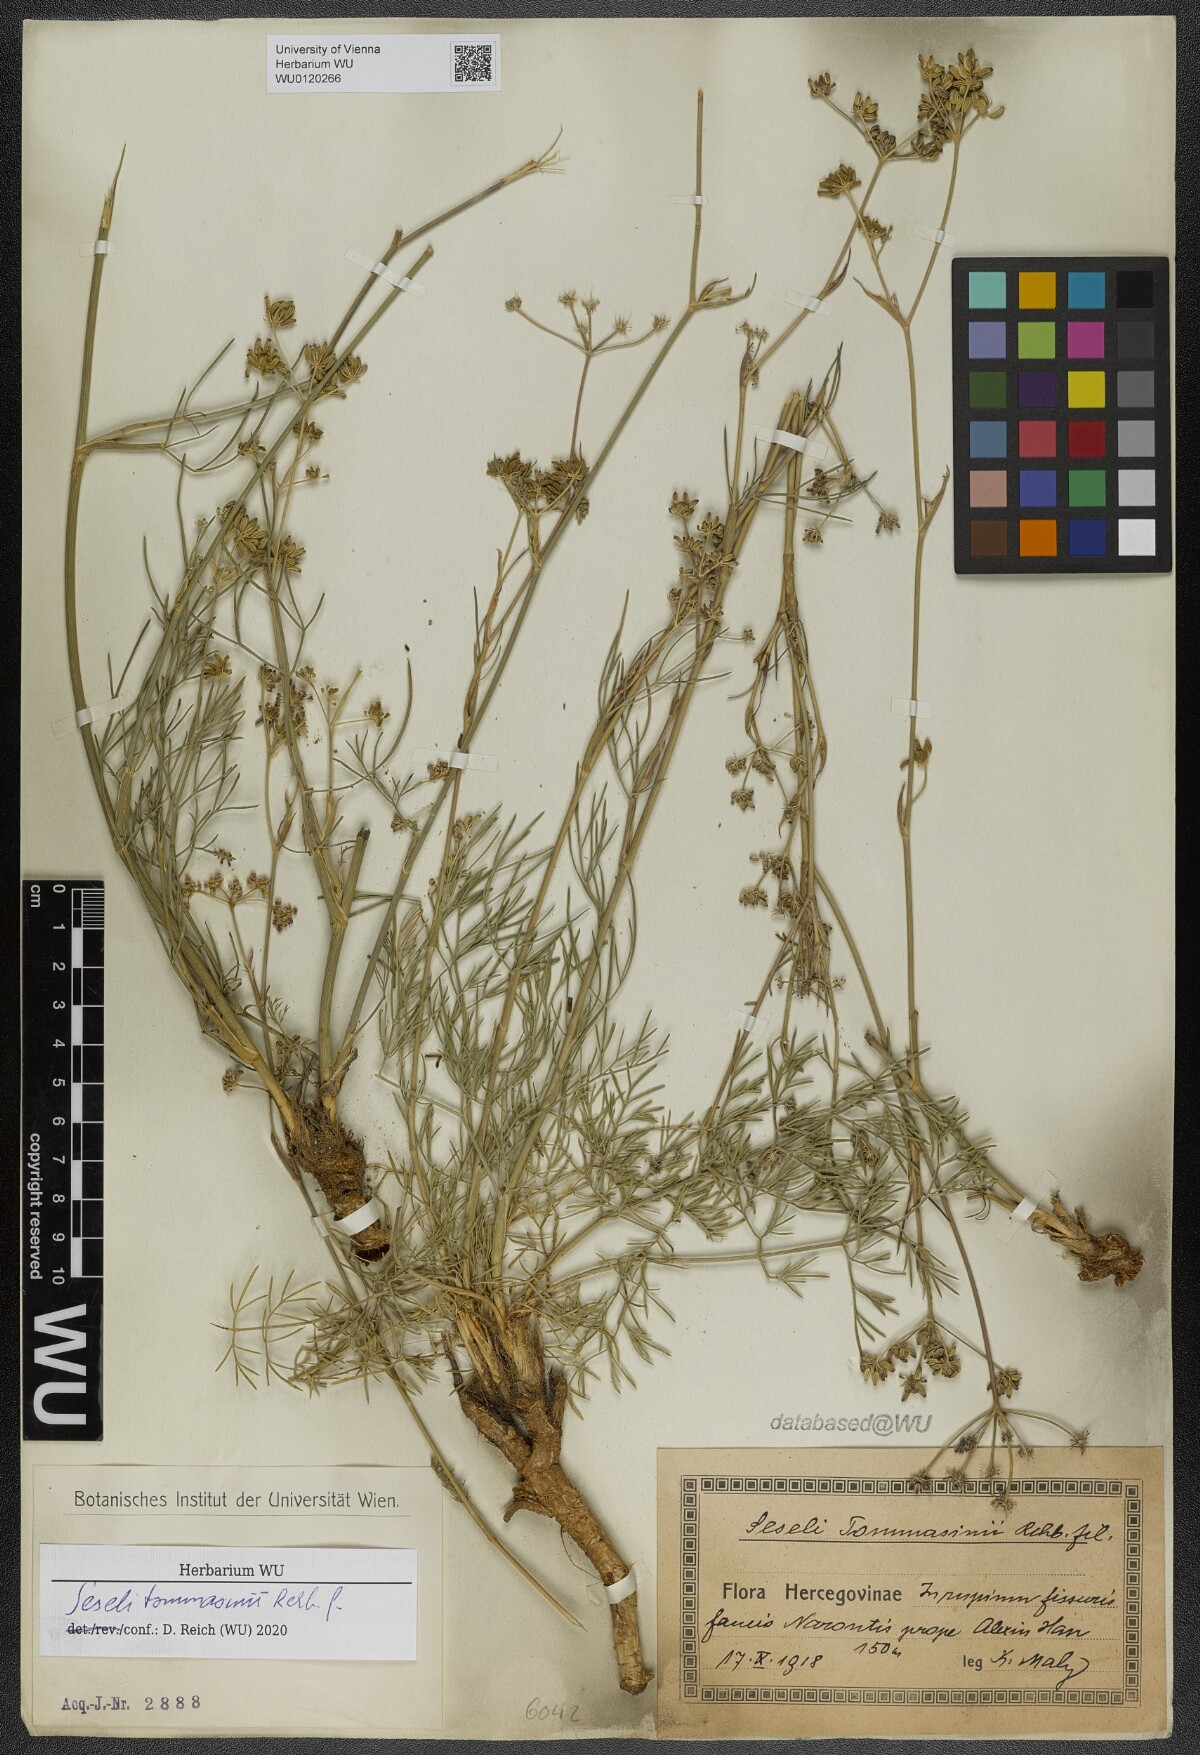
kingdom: Plantae
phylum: Tracheophyta
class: Magnoliopsida
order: Apiales
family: Apiaceae
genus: Seseli
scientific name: Seseli montanum
